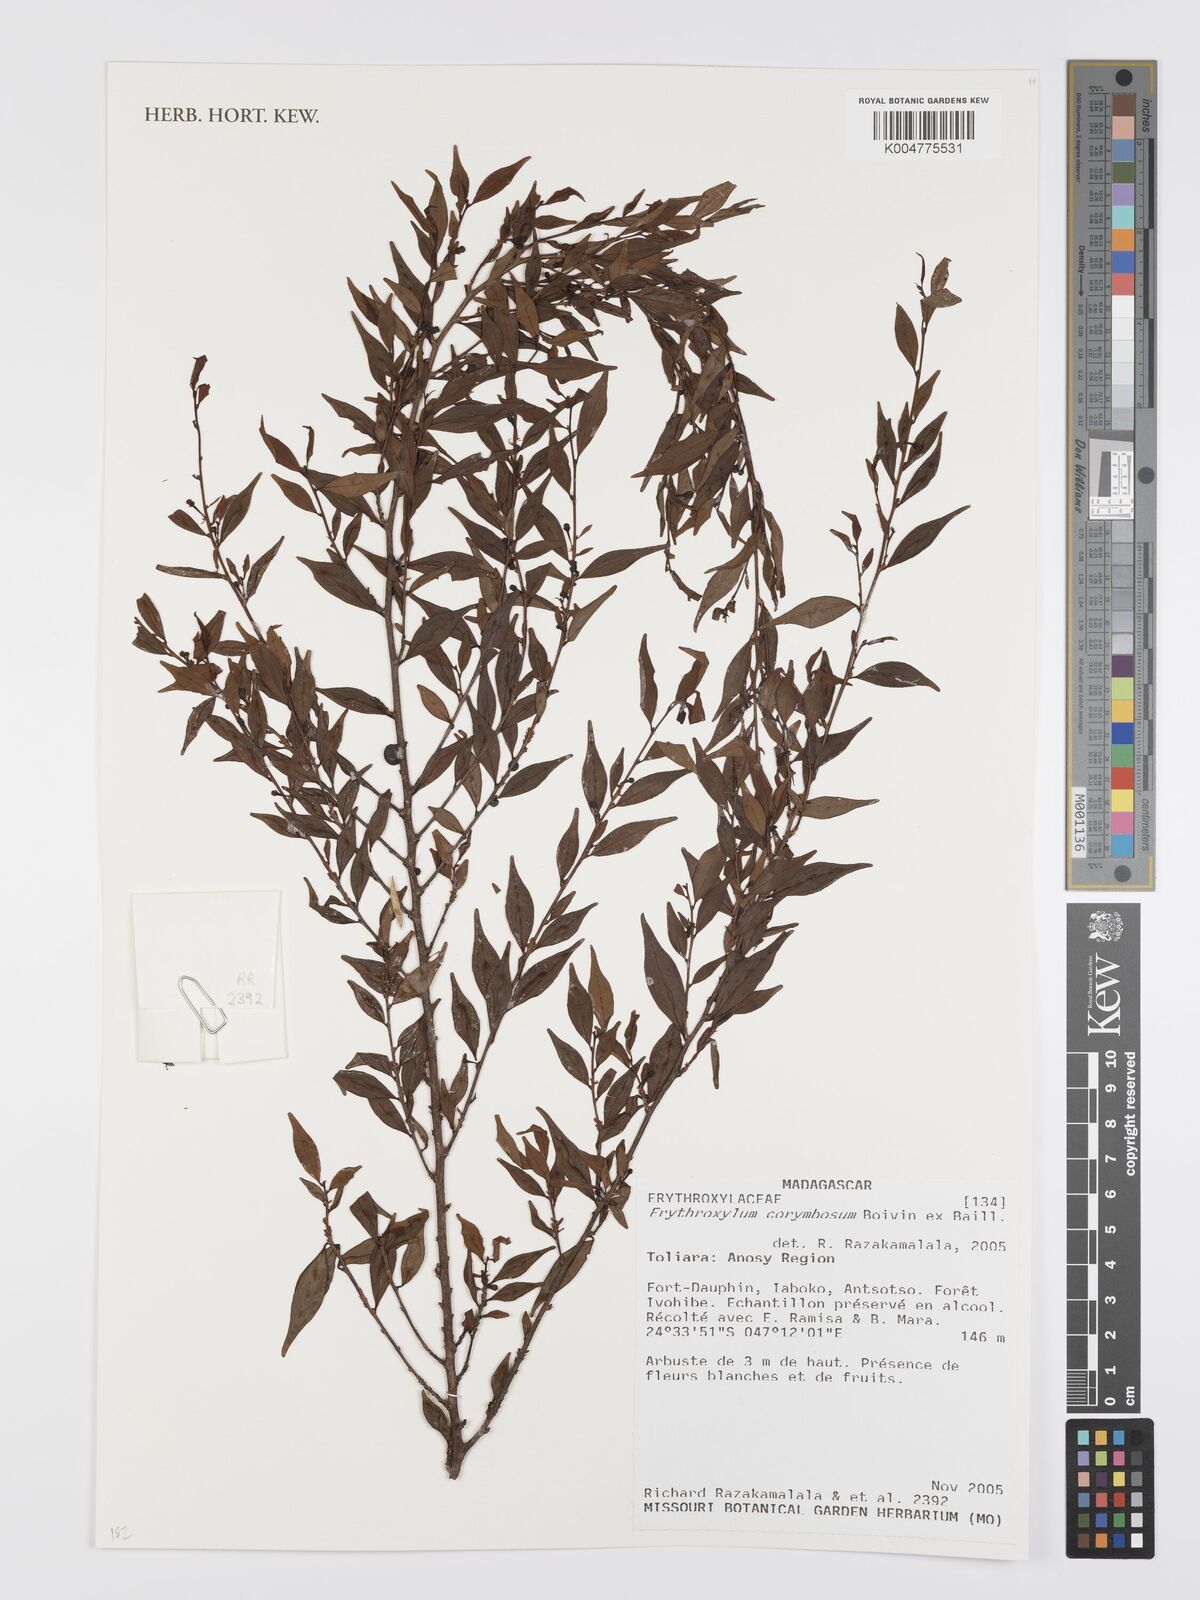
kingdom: Plantae
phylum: Tracheophyta
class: Magnoliopsida
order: Malpighiales
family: Erythroxylaceae
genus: Erythroxylum
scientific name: Erythroxylum corymbosum
